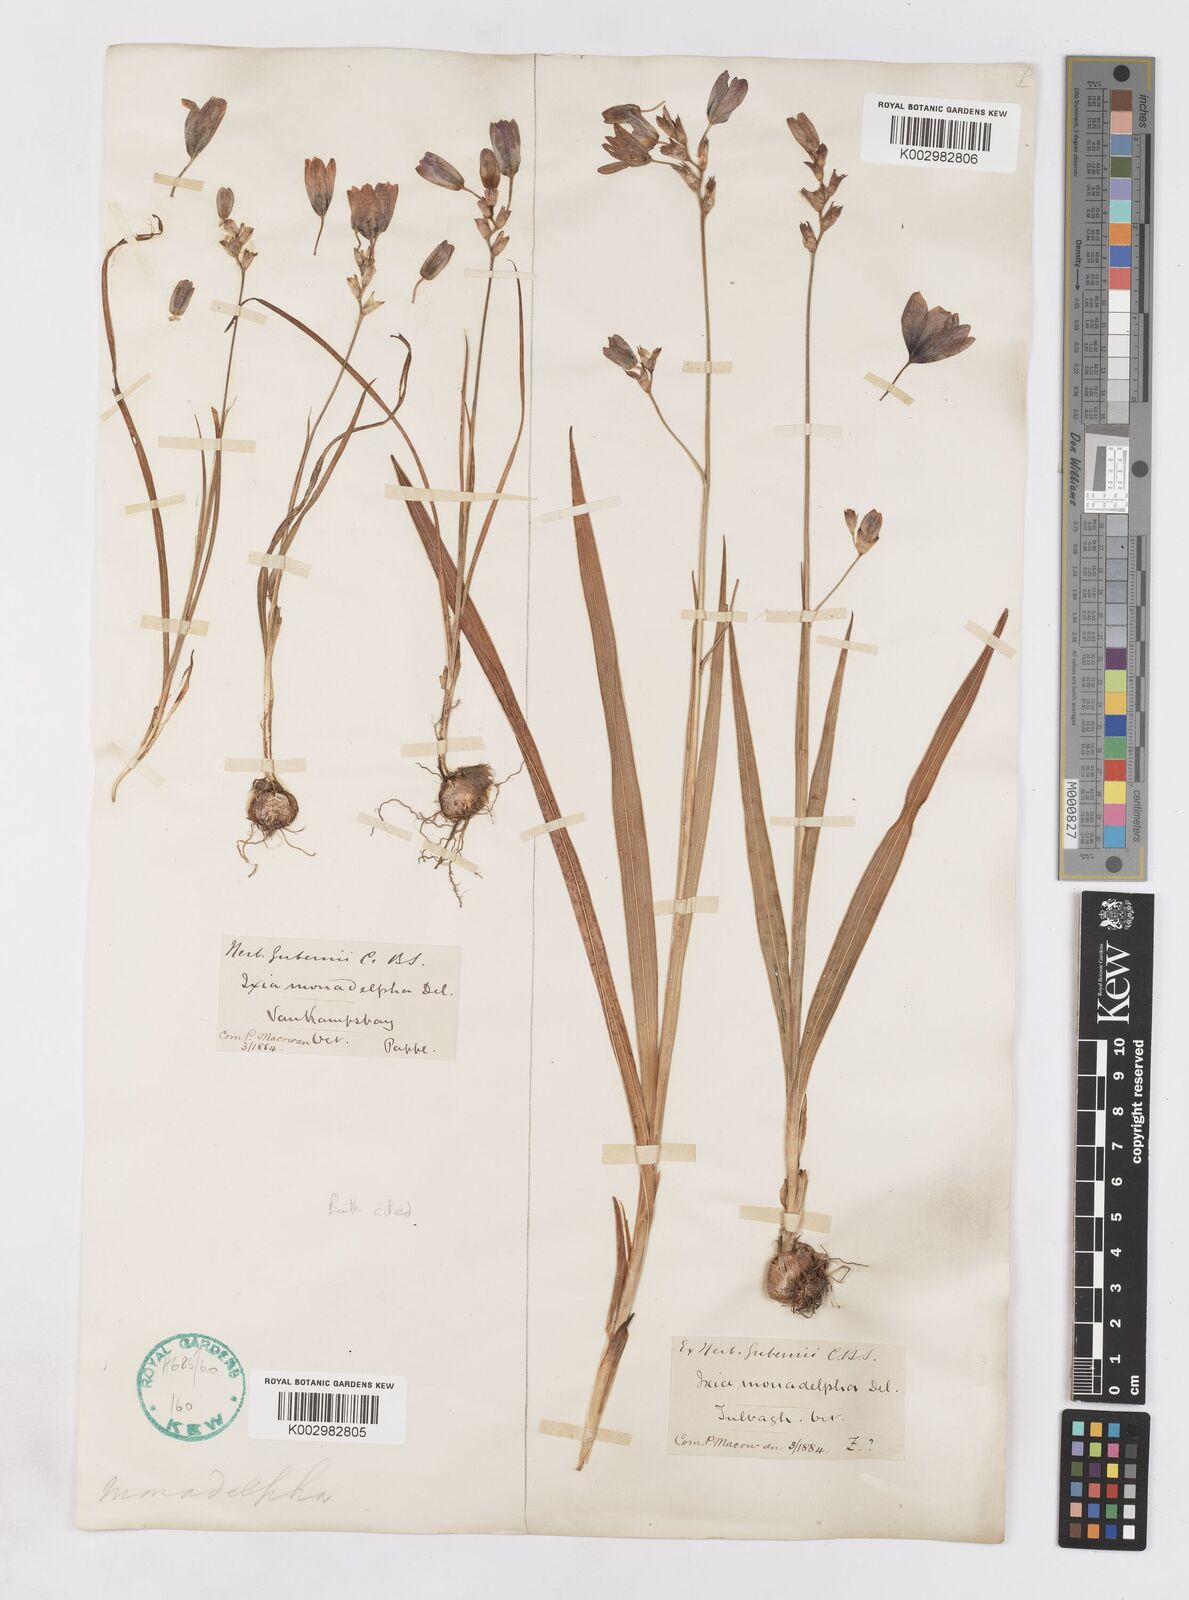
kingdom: Plantae
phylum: Tracheophyta
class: Liliopsida
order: Asparagales
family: Iridaceae
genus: Ixia
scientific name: Ixia monadelpha
